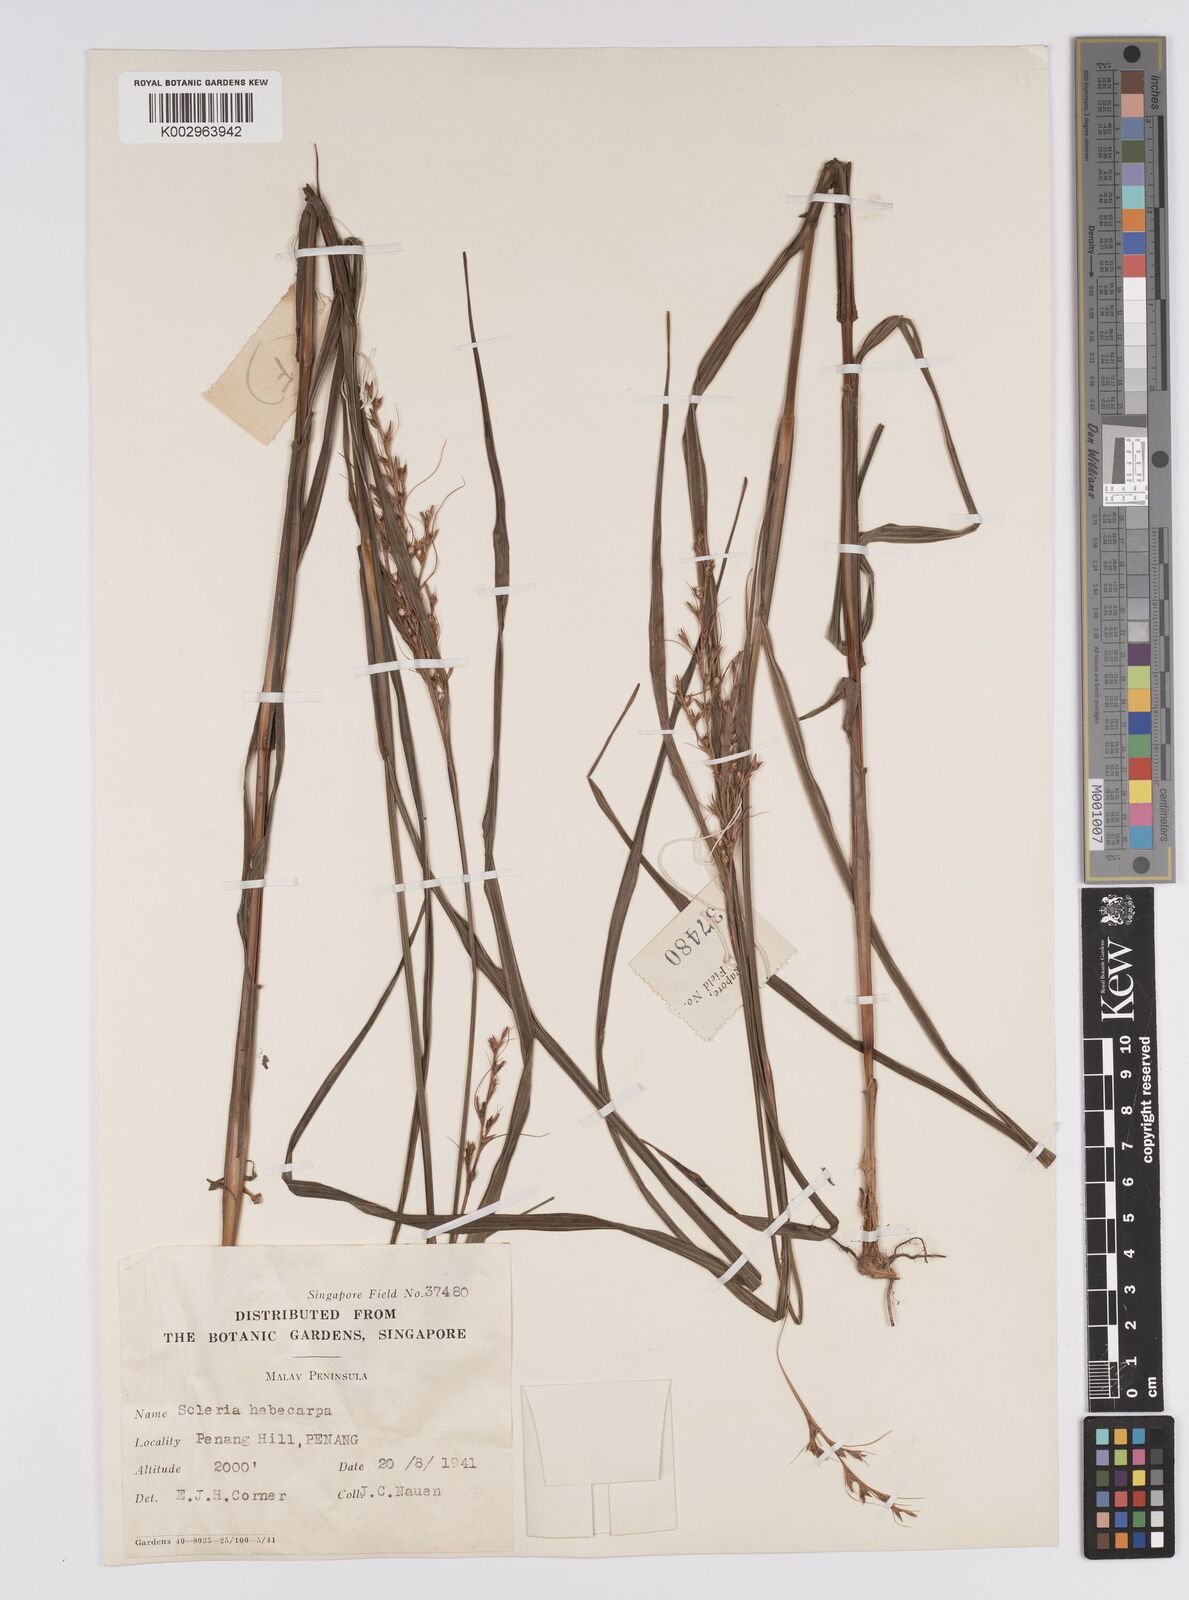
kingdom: Plantae
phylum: Tracheophyta
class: Liliopsida
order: Poales
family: Cyperaceae
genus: Scleria
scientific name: Scleria levis
